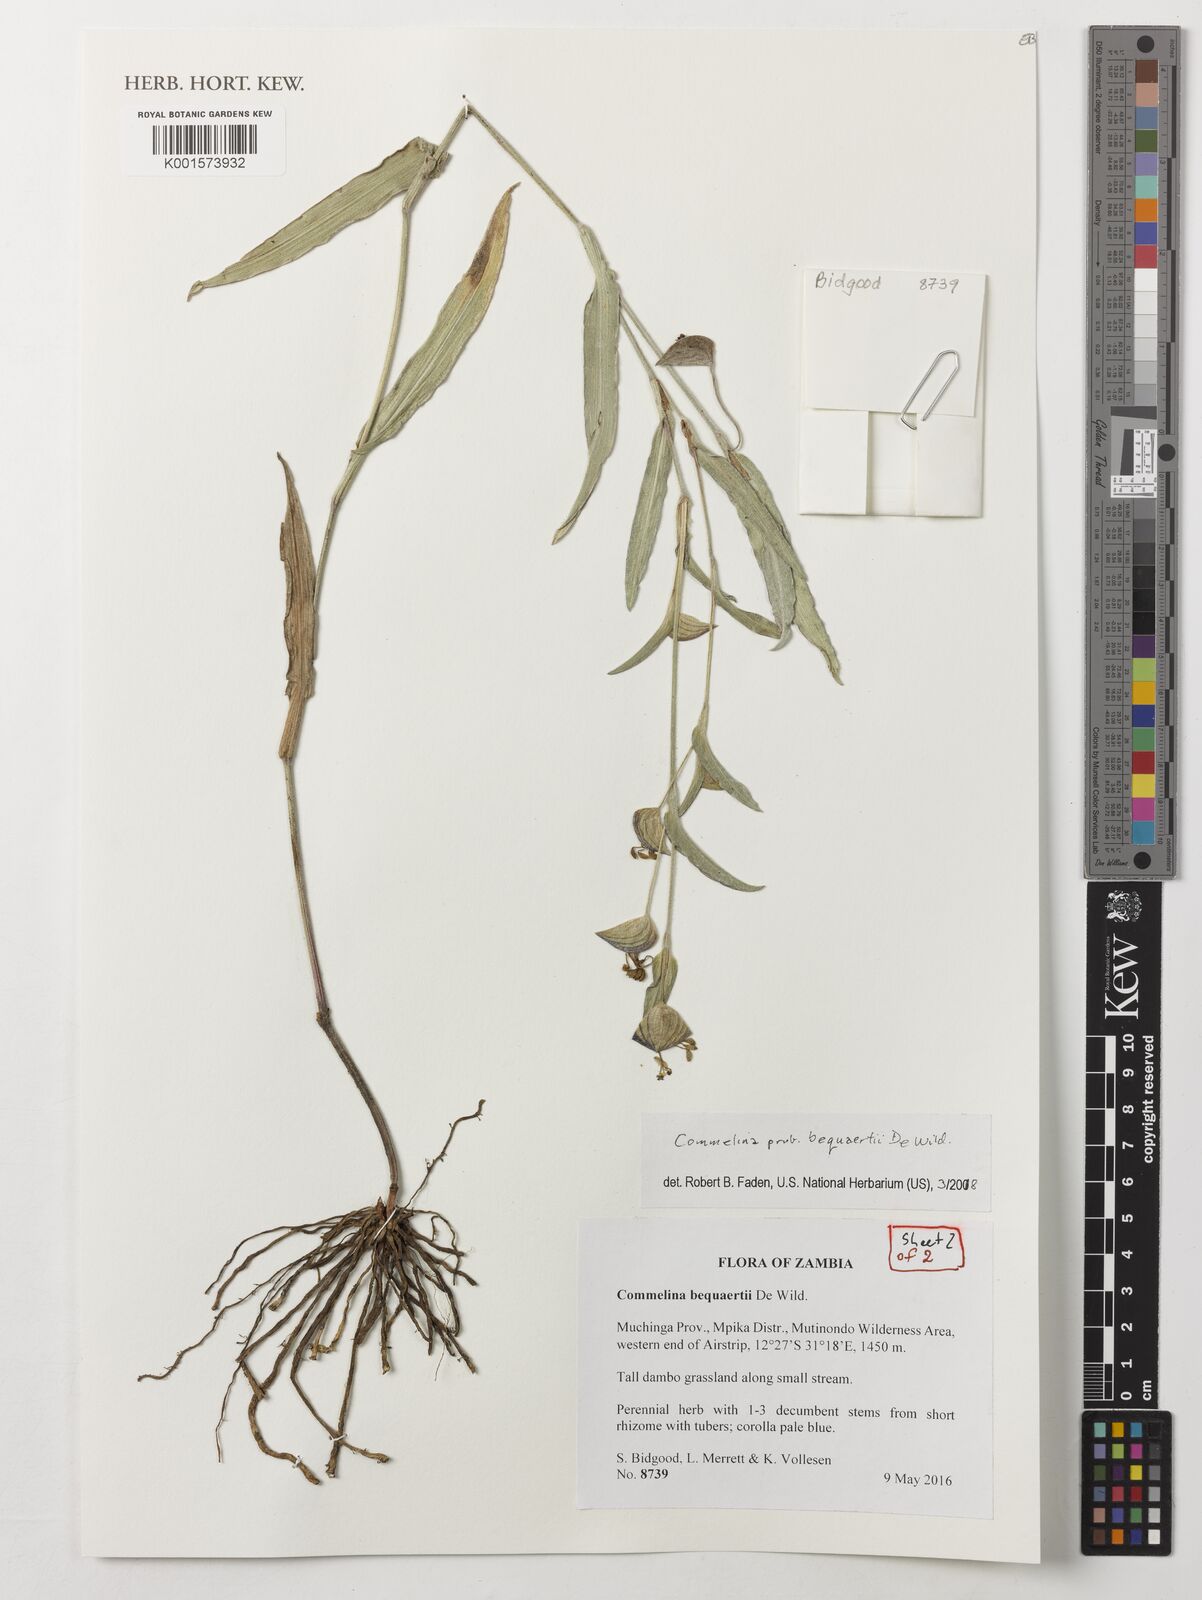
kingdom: Plantae
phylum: Tracheophyta
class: Liliopsida
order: Commelinales
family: Commelinaceae
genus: Commelina
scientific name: Commelina bequaertii
